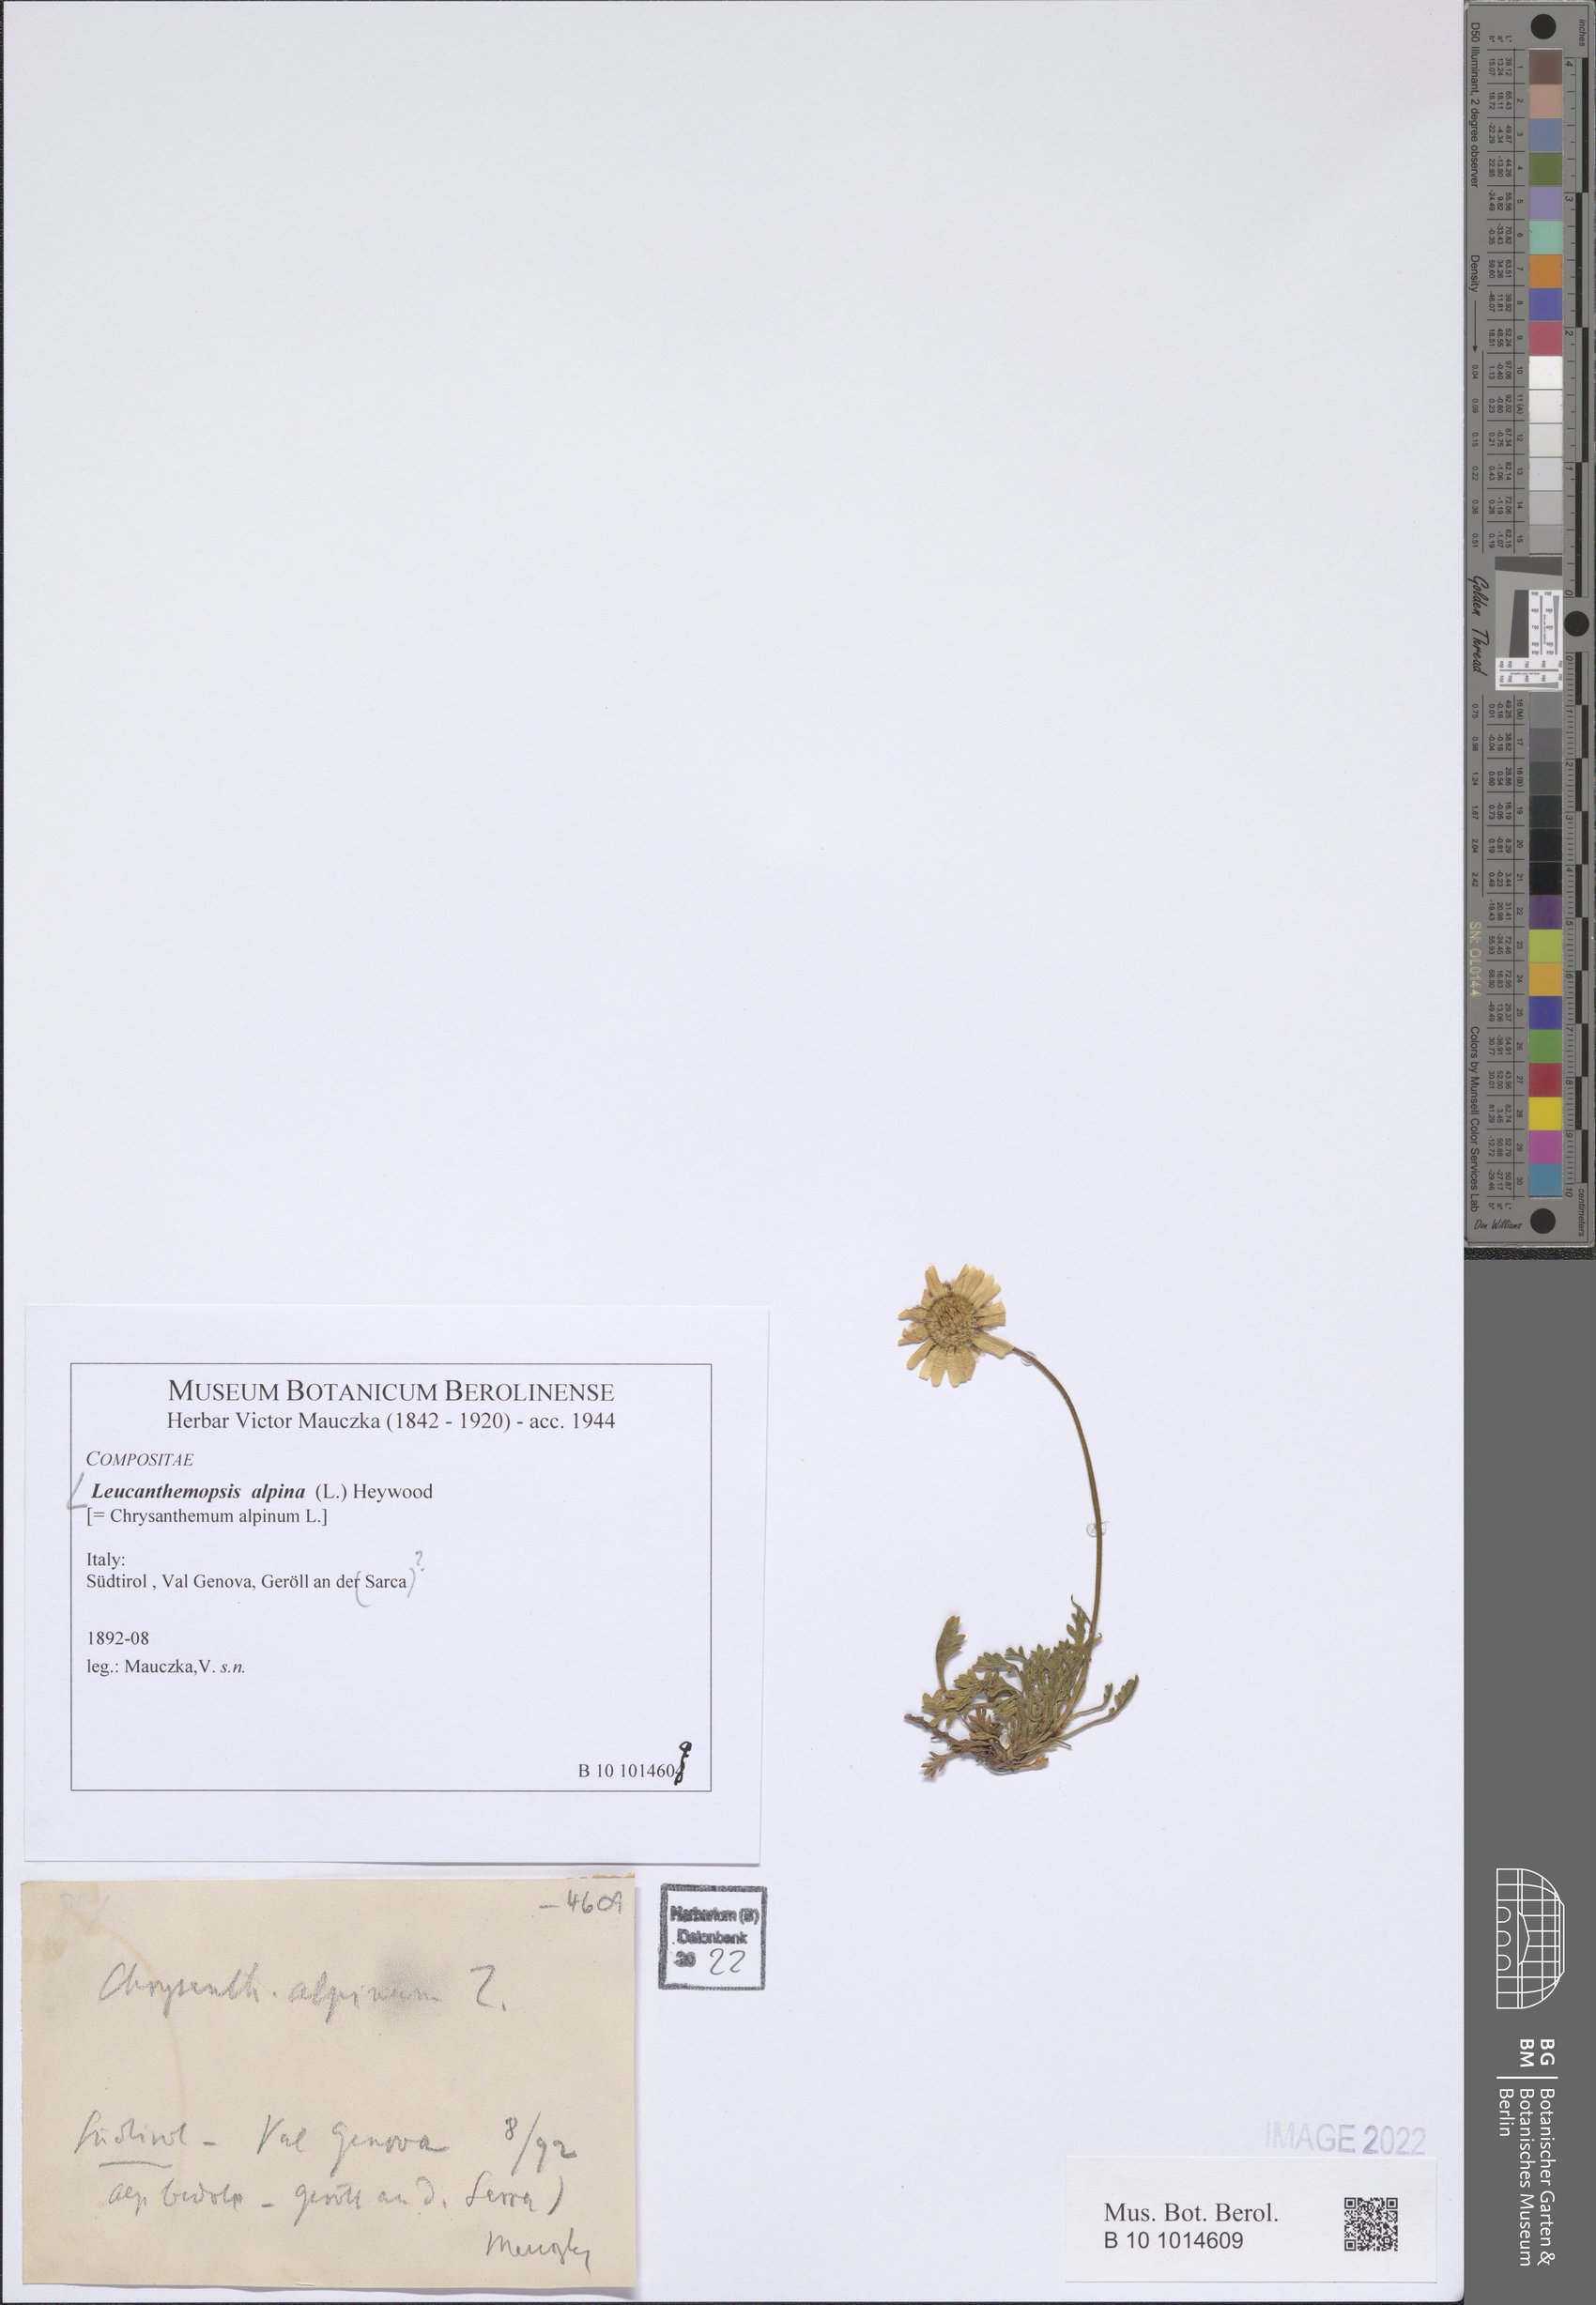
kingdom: Plantae
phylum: Tracheophyta
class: Magnoliopsida
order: Asterales
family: Asteraceae
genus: Leucanthemopsis
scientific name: Leucanthemopsis alpina
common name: Alpine moon daisy
